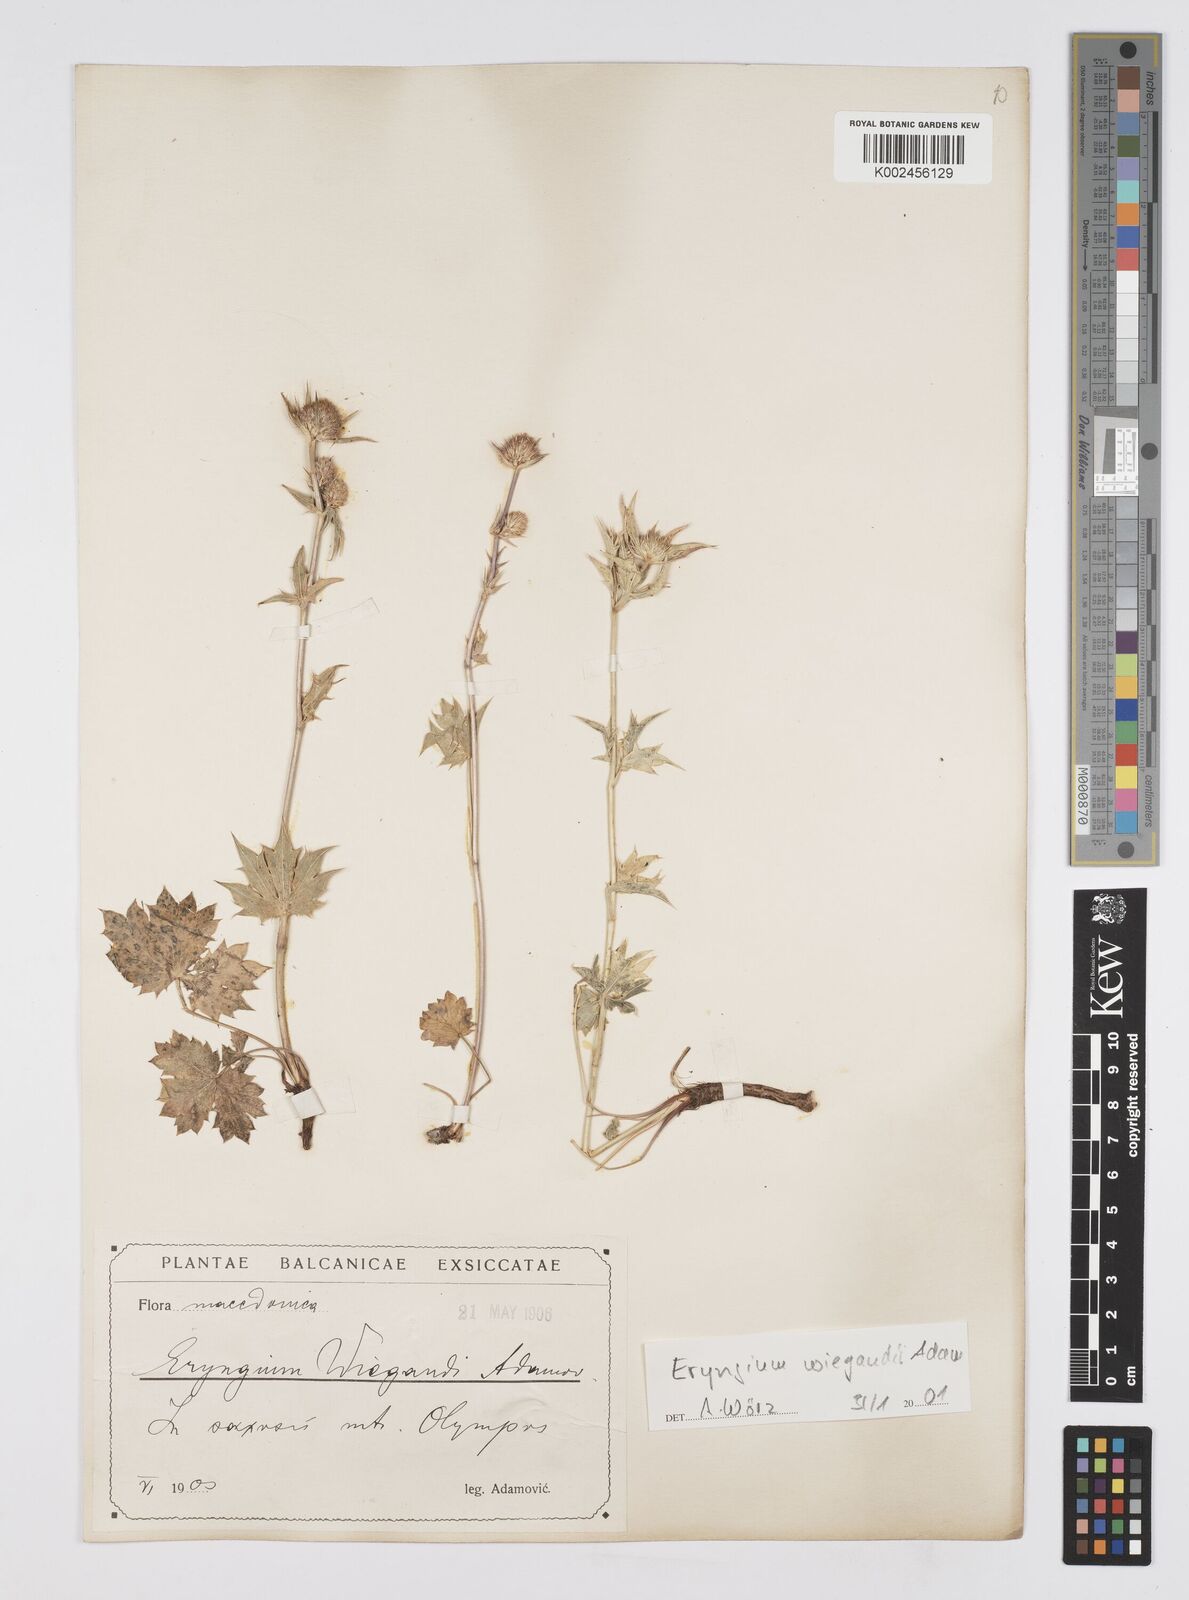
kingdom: Plantae
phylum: Tracheophyta
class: Magnoliopsida
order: Apiales
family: Apiaceae
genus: Eryngium
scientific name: Eryngium palmatum
